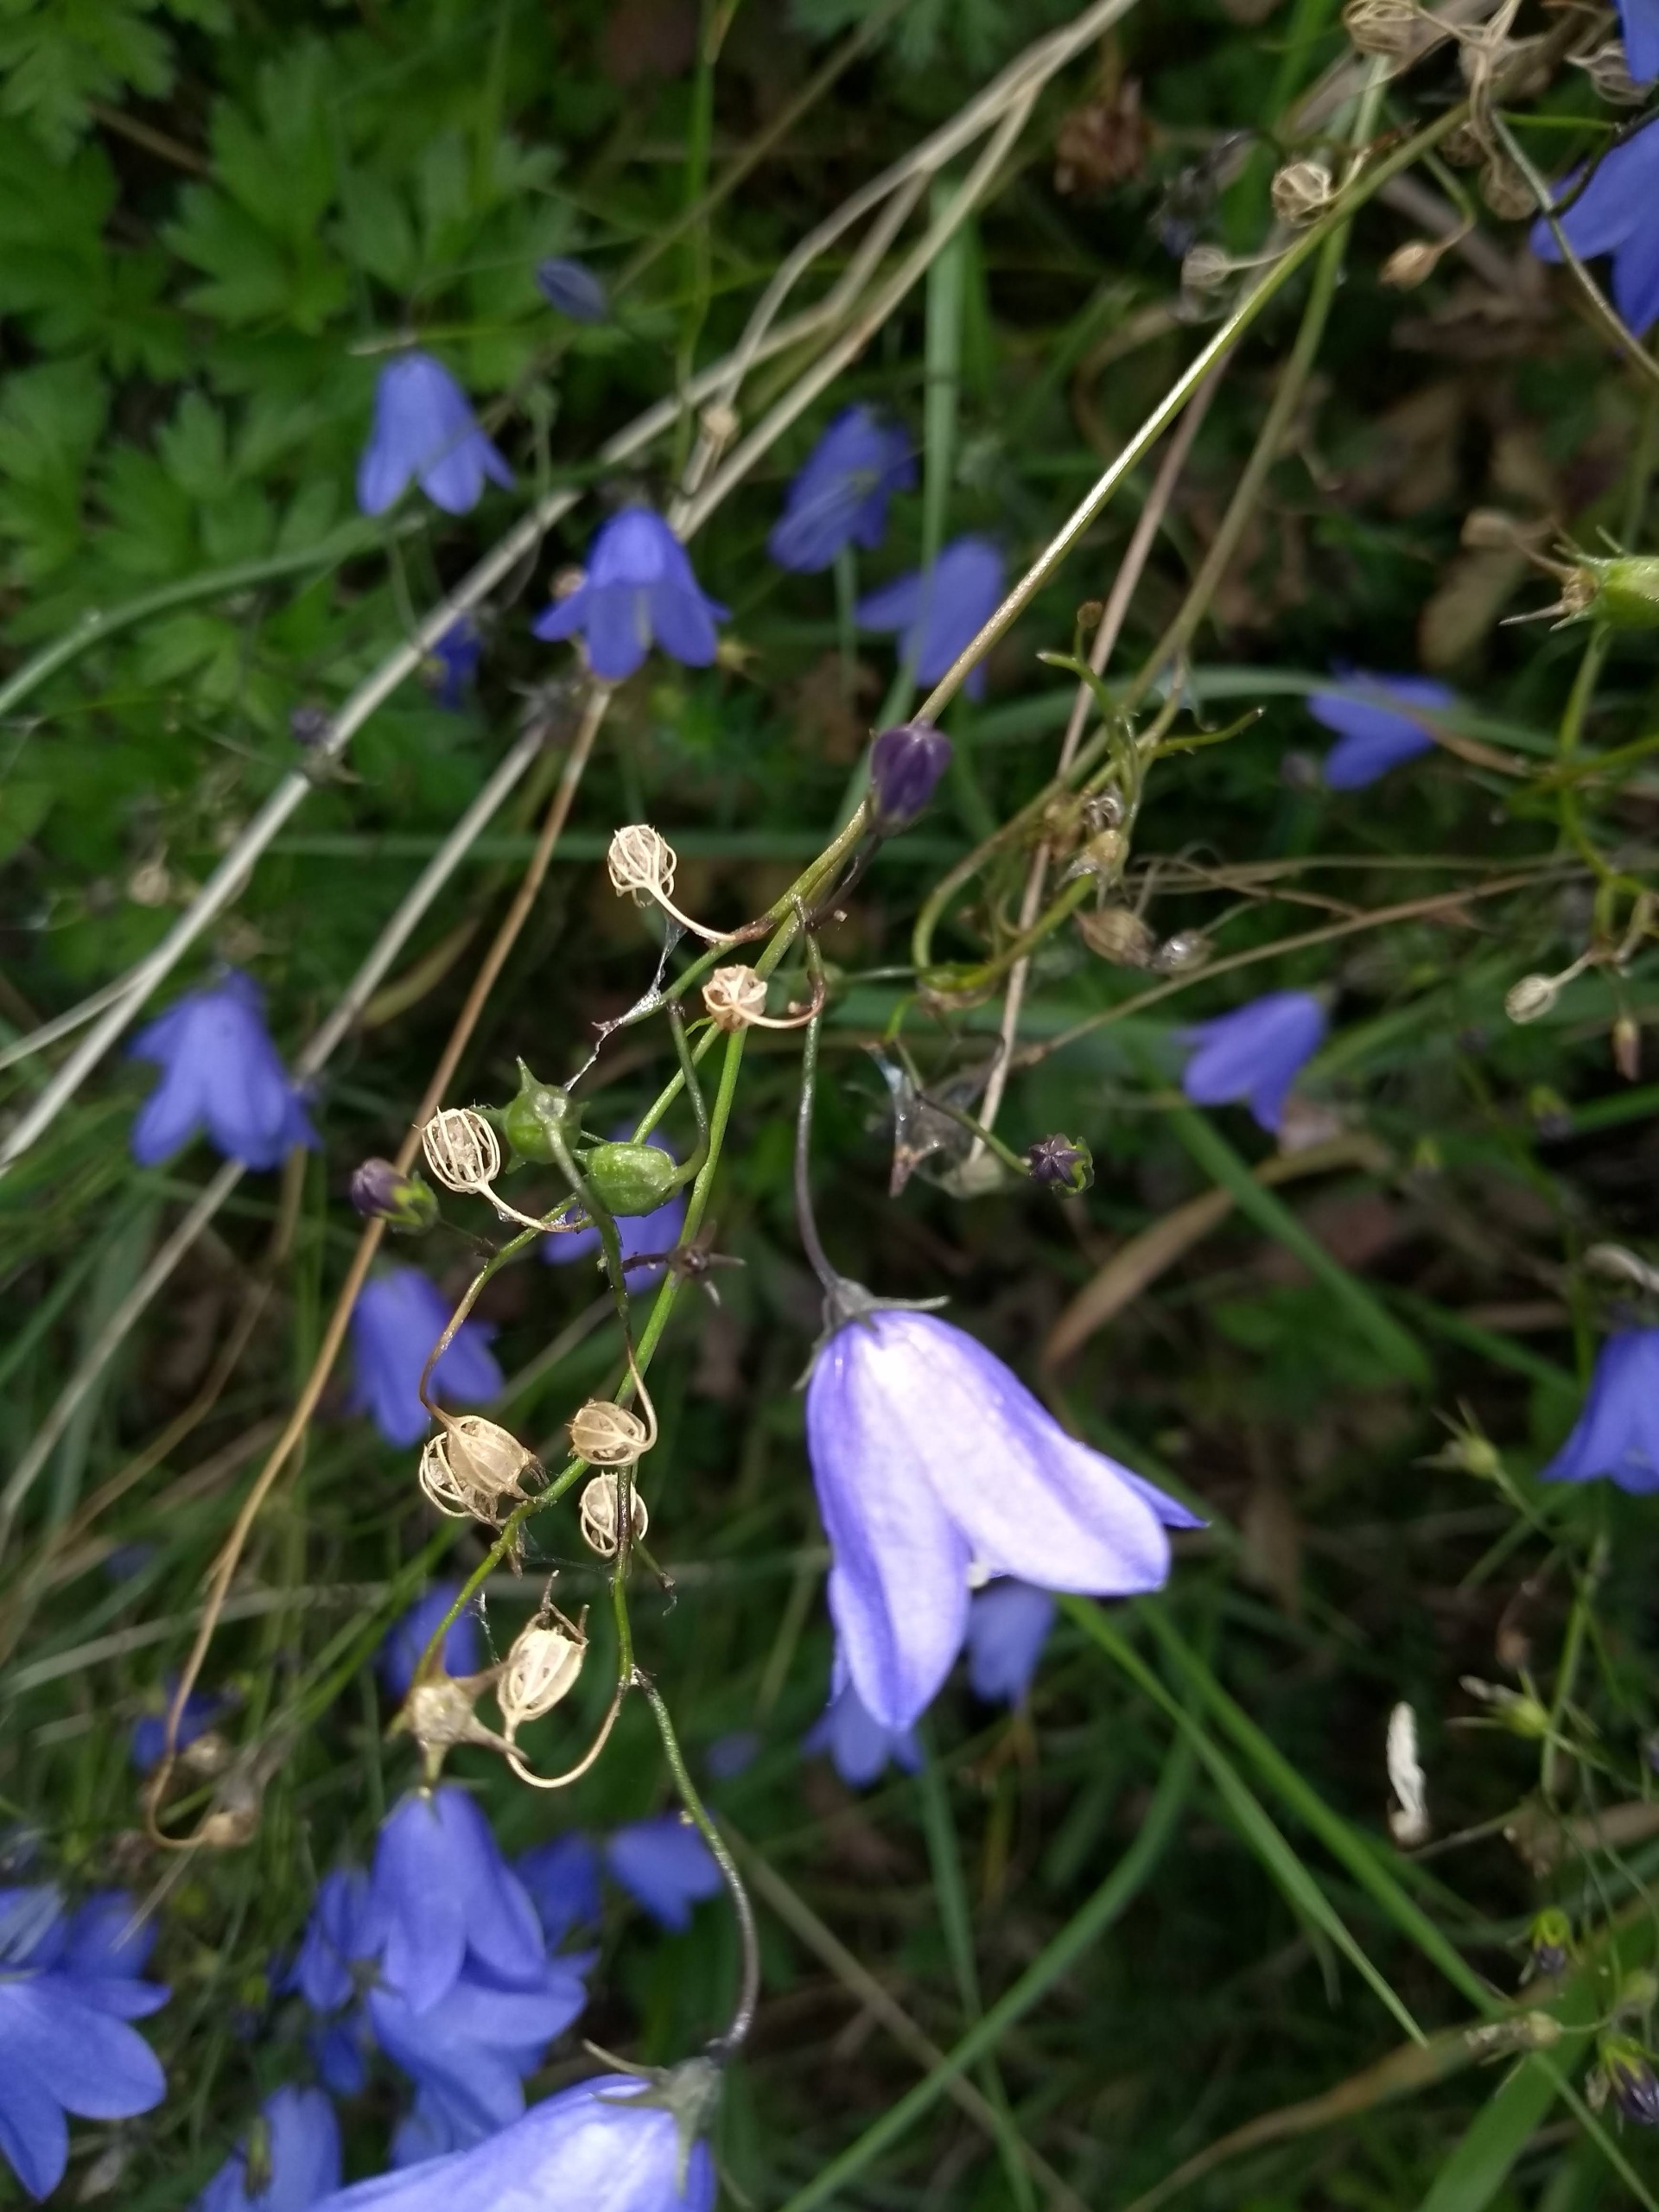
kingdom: Plantae
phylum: Tracheophyta
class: Magnoliopsida
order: Asterales
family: Campanulaceae
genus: Campanula
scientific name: Campanula rotundifolia
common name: Liden klokke
